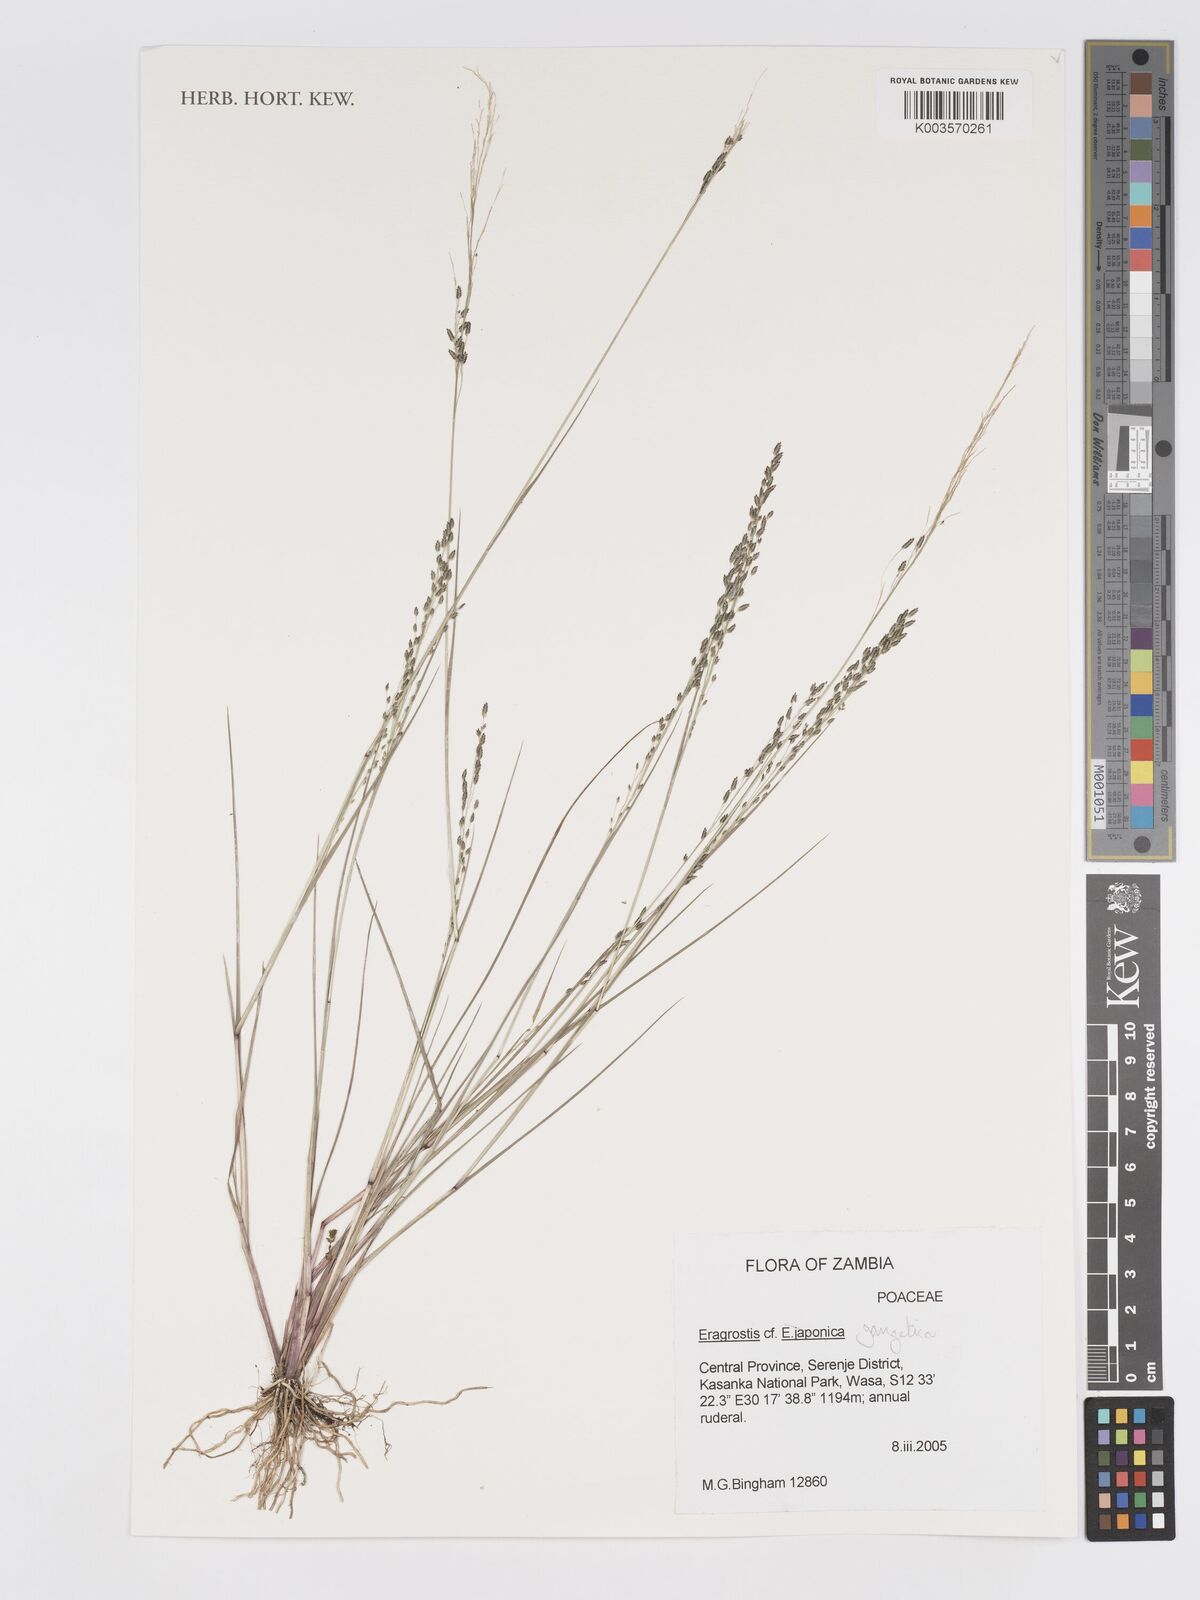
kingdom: Plantae
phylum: Tracheophyta
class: Liliopsida
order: Poales
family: Poaceae
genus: Eragrostis
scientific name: Eragrostis gangetica
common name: Slimflower lovegrass
